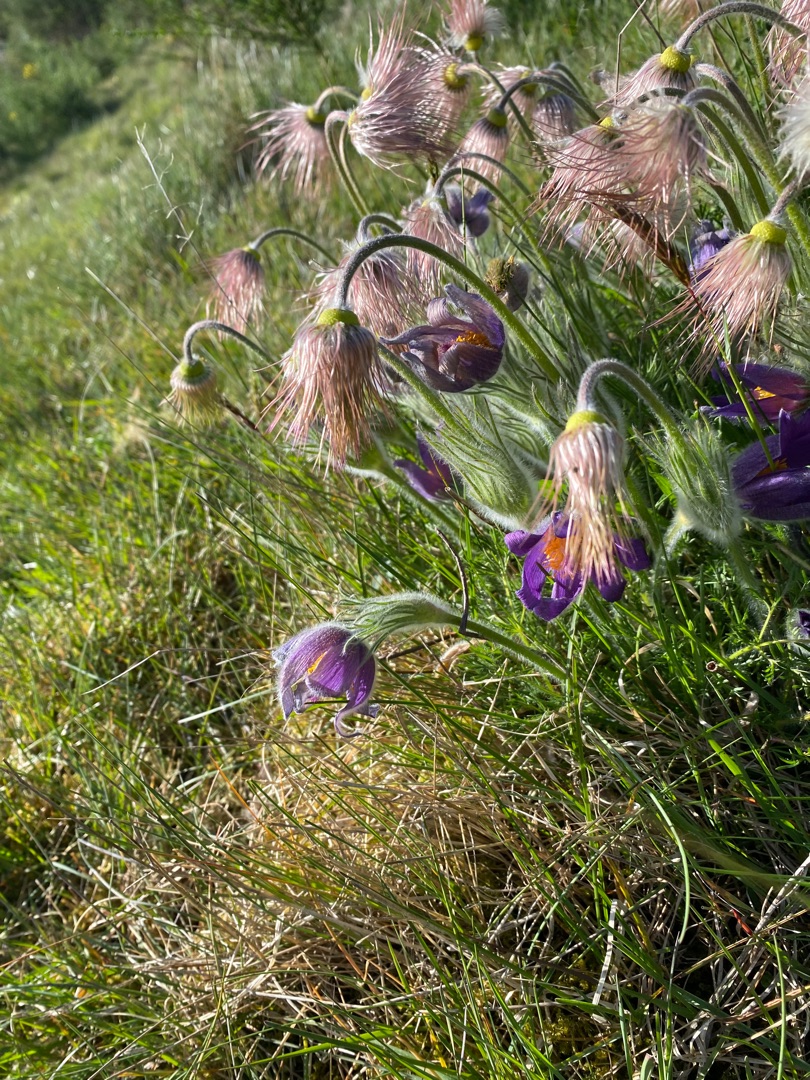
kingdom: Plantae
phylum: Tracheophyta
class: Magnoliopsida
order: Ranunculales
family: Ranunculaceae
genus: Pulsatilla
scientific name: Pulsatilla vulgaris
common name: Opret kobjælde
